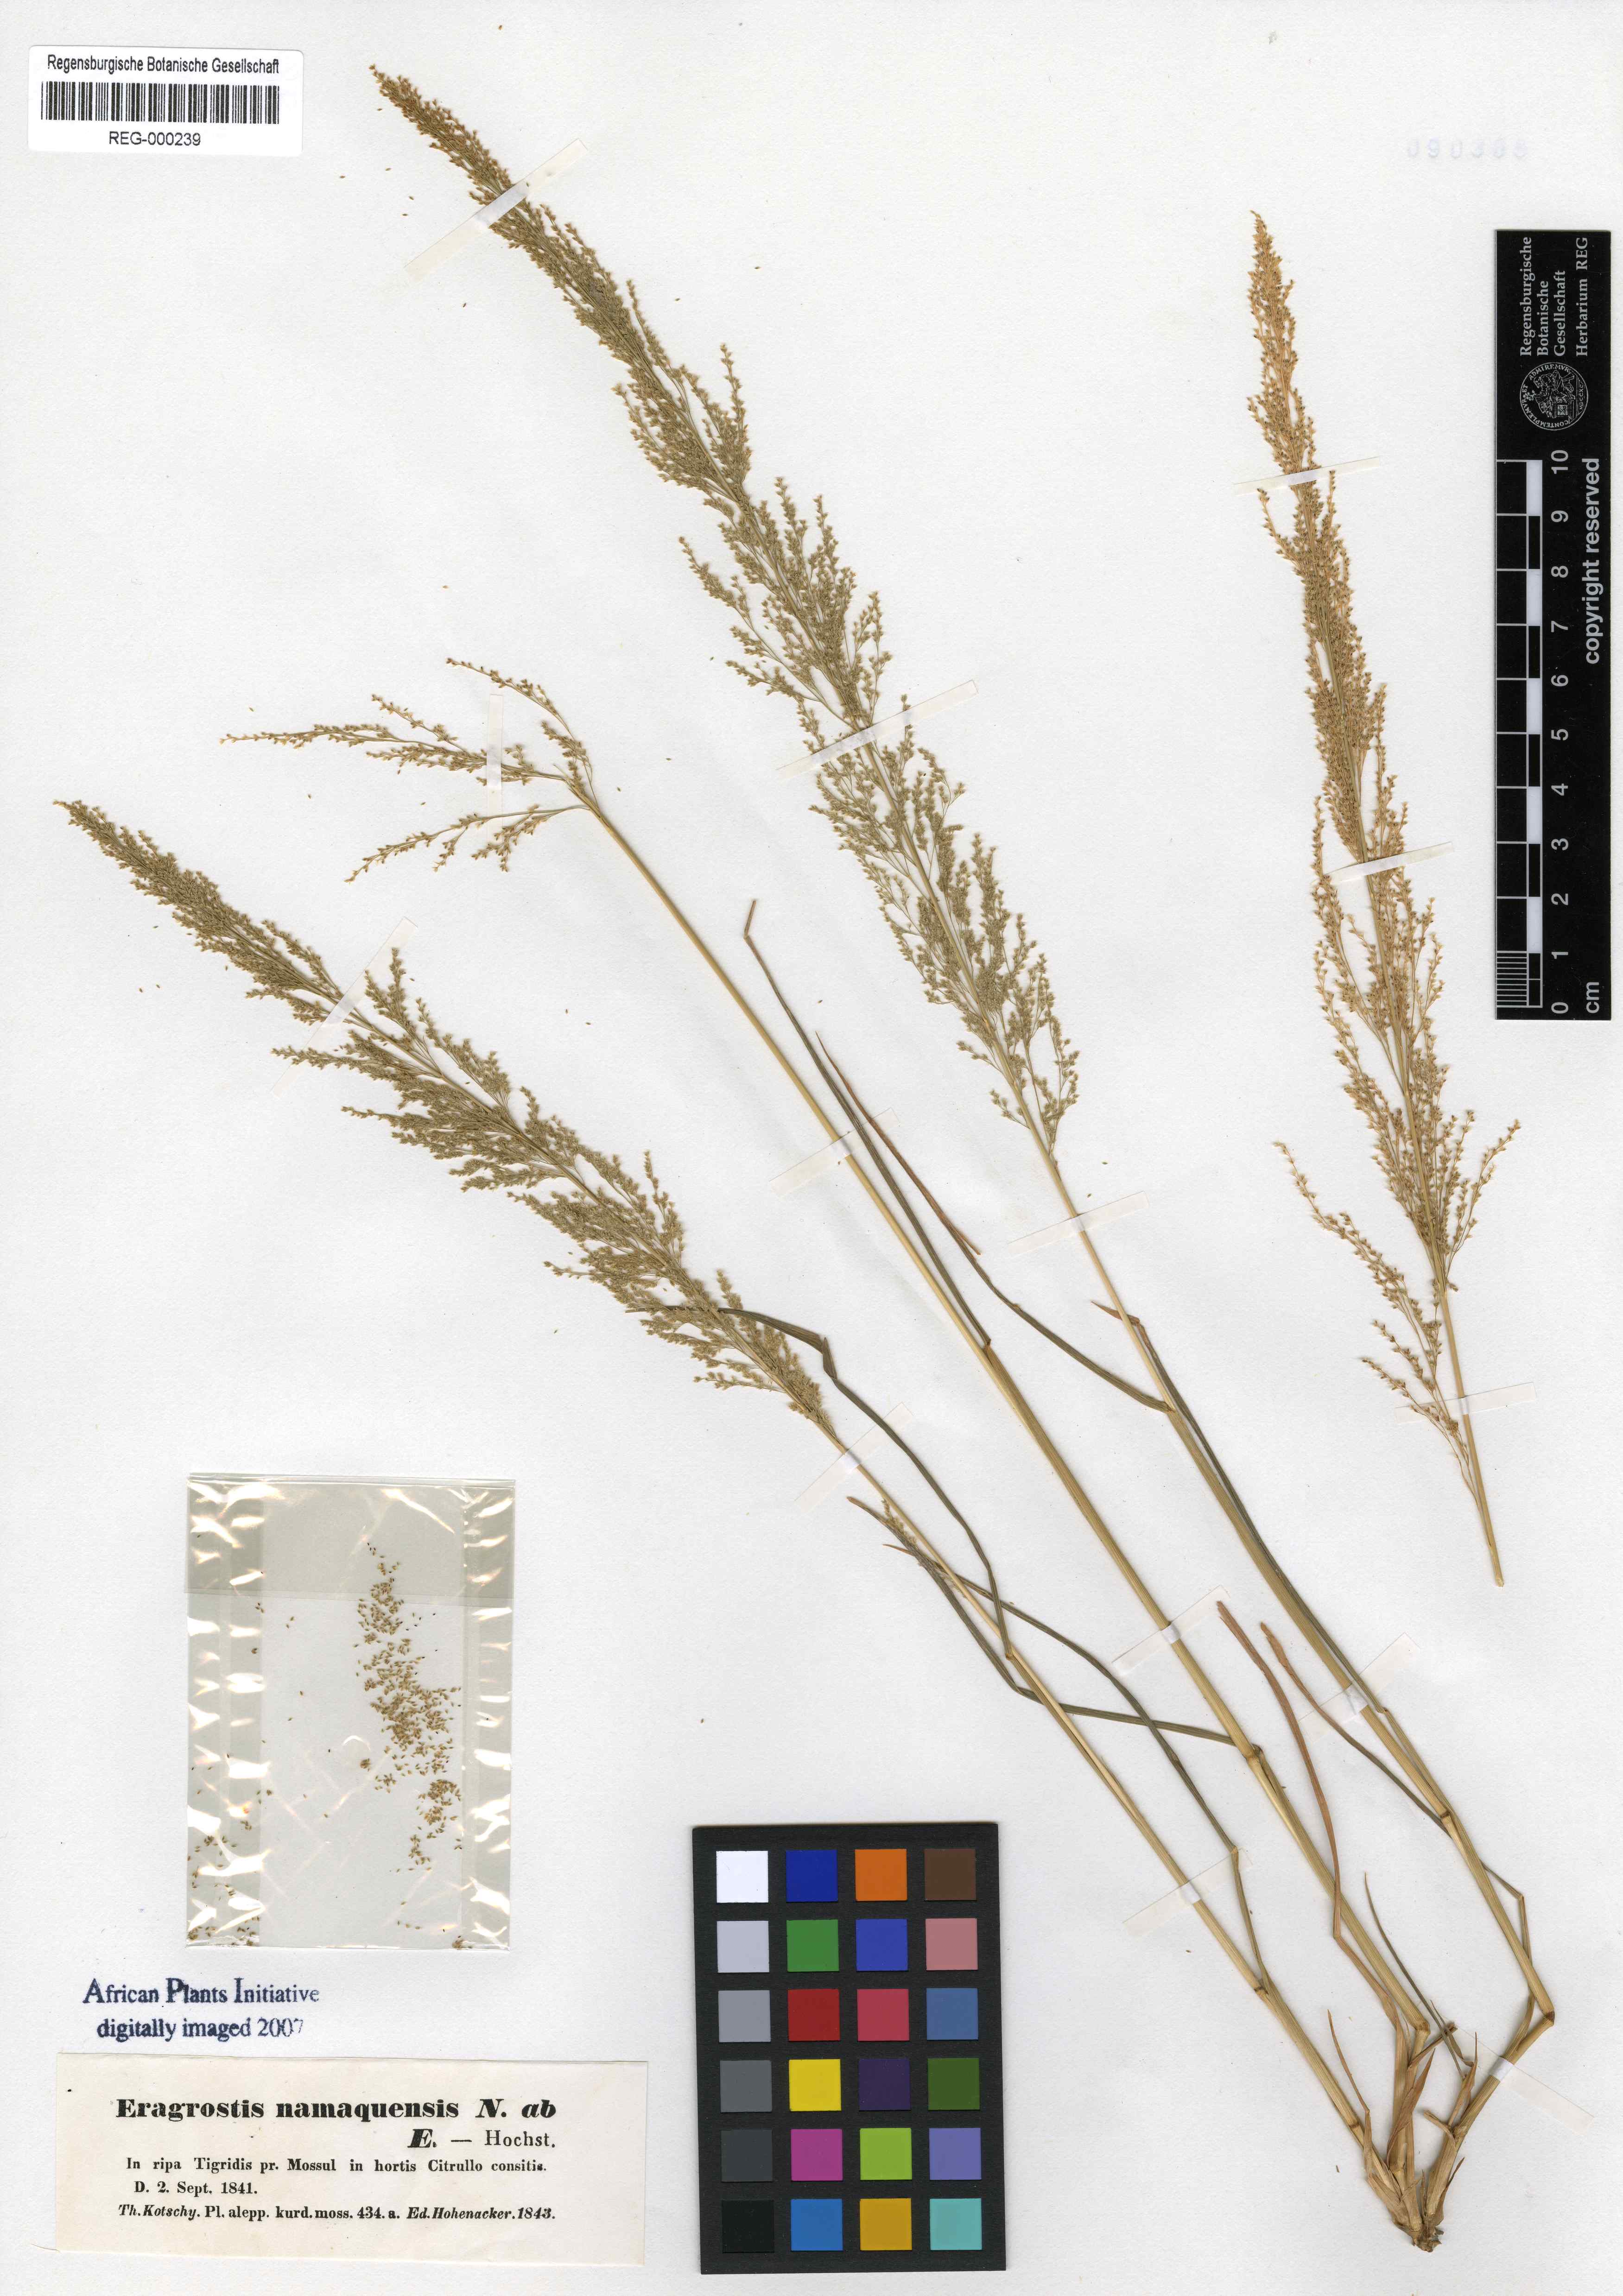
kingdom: Plantae
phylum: Tracheophyta
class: Liliopsida
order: Poales
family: Poaceae
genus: Eragrostis
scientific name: Eragrostis namaquensis
